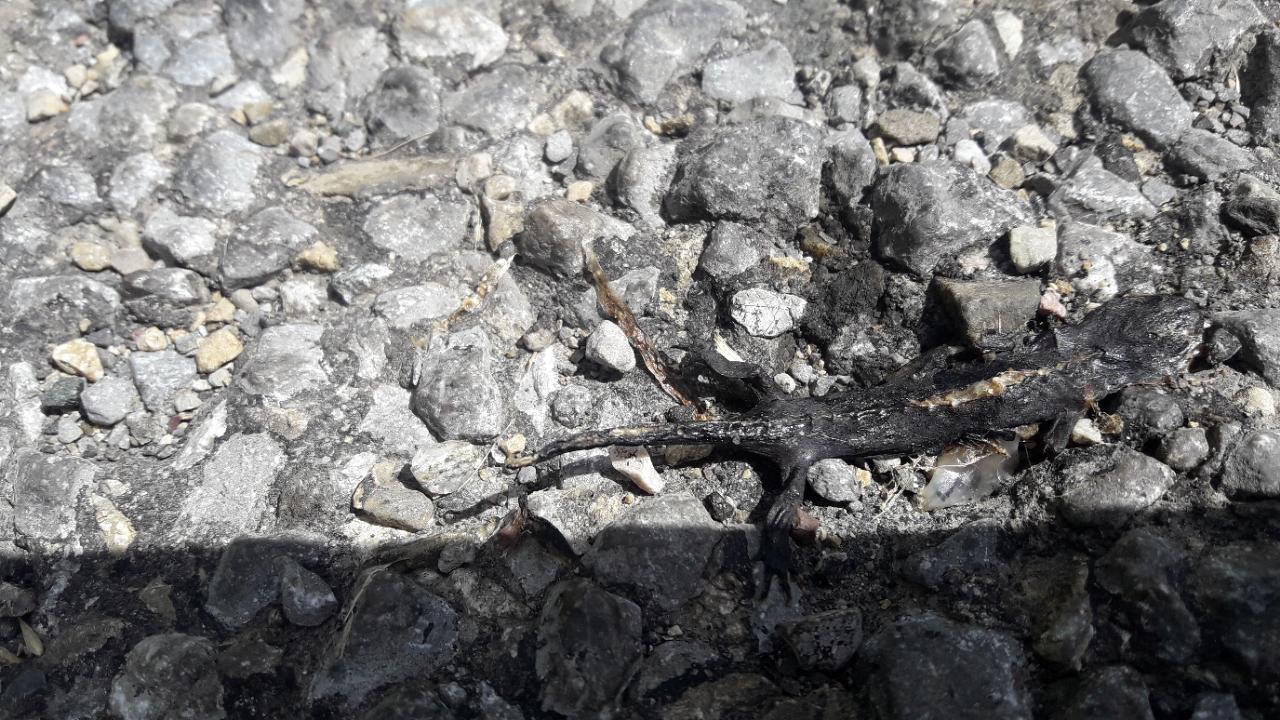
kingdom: Animalia
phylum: Chordata
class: Amphibia
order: Caudata
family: Salamandridae
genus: Salamandra
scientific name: Salamandra atra
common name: Alpine salamander
